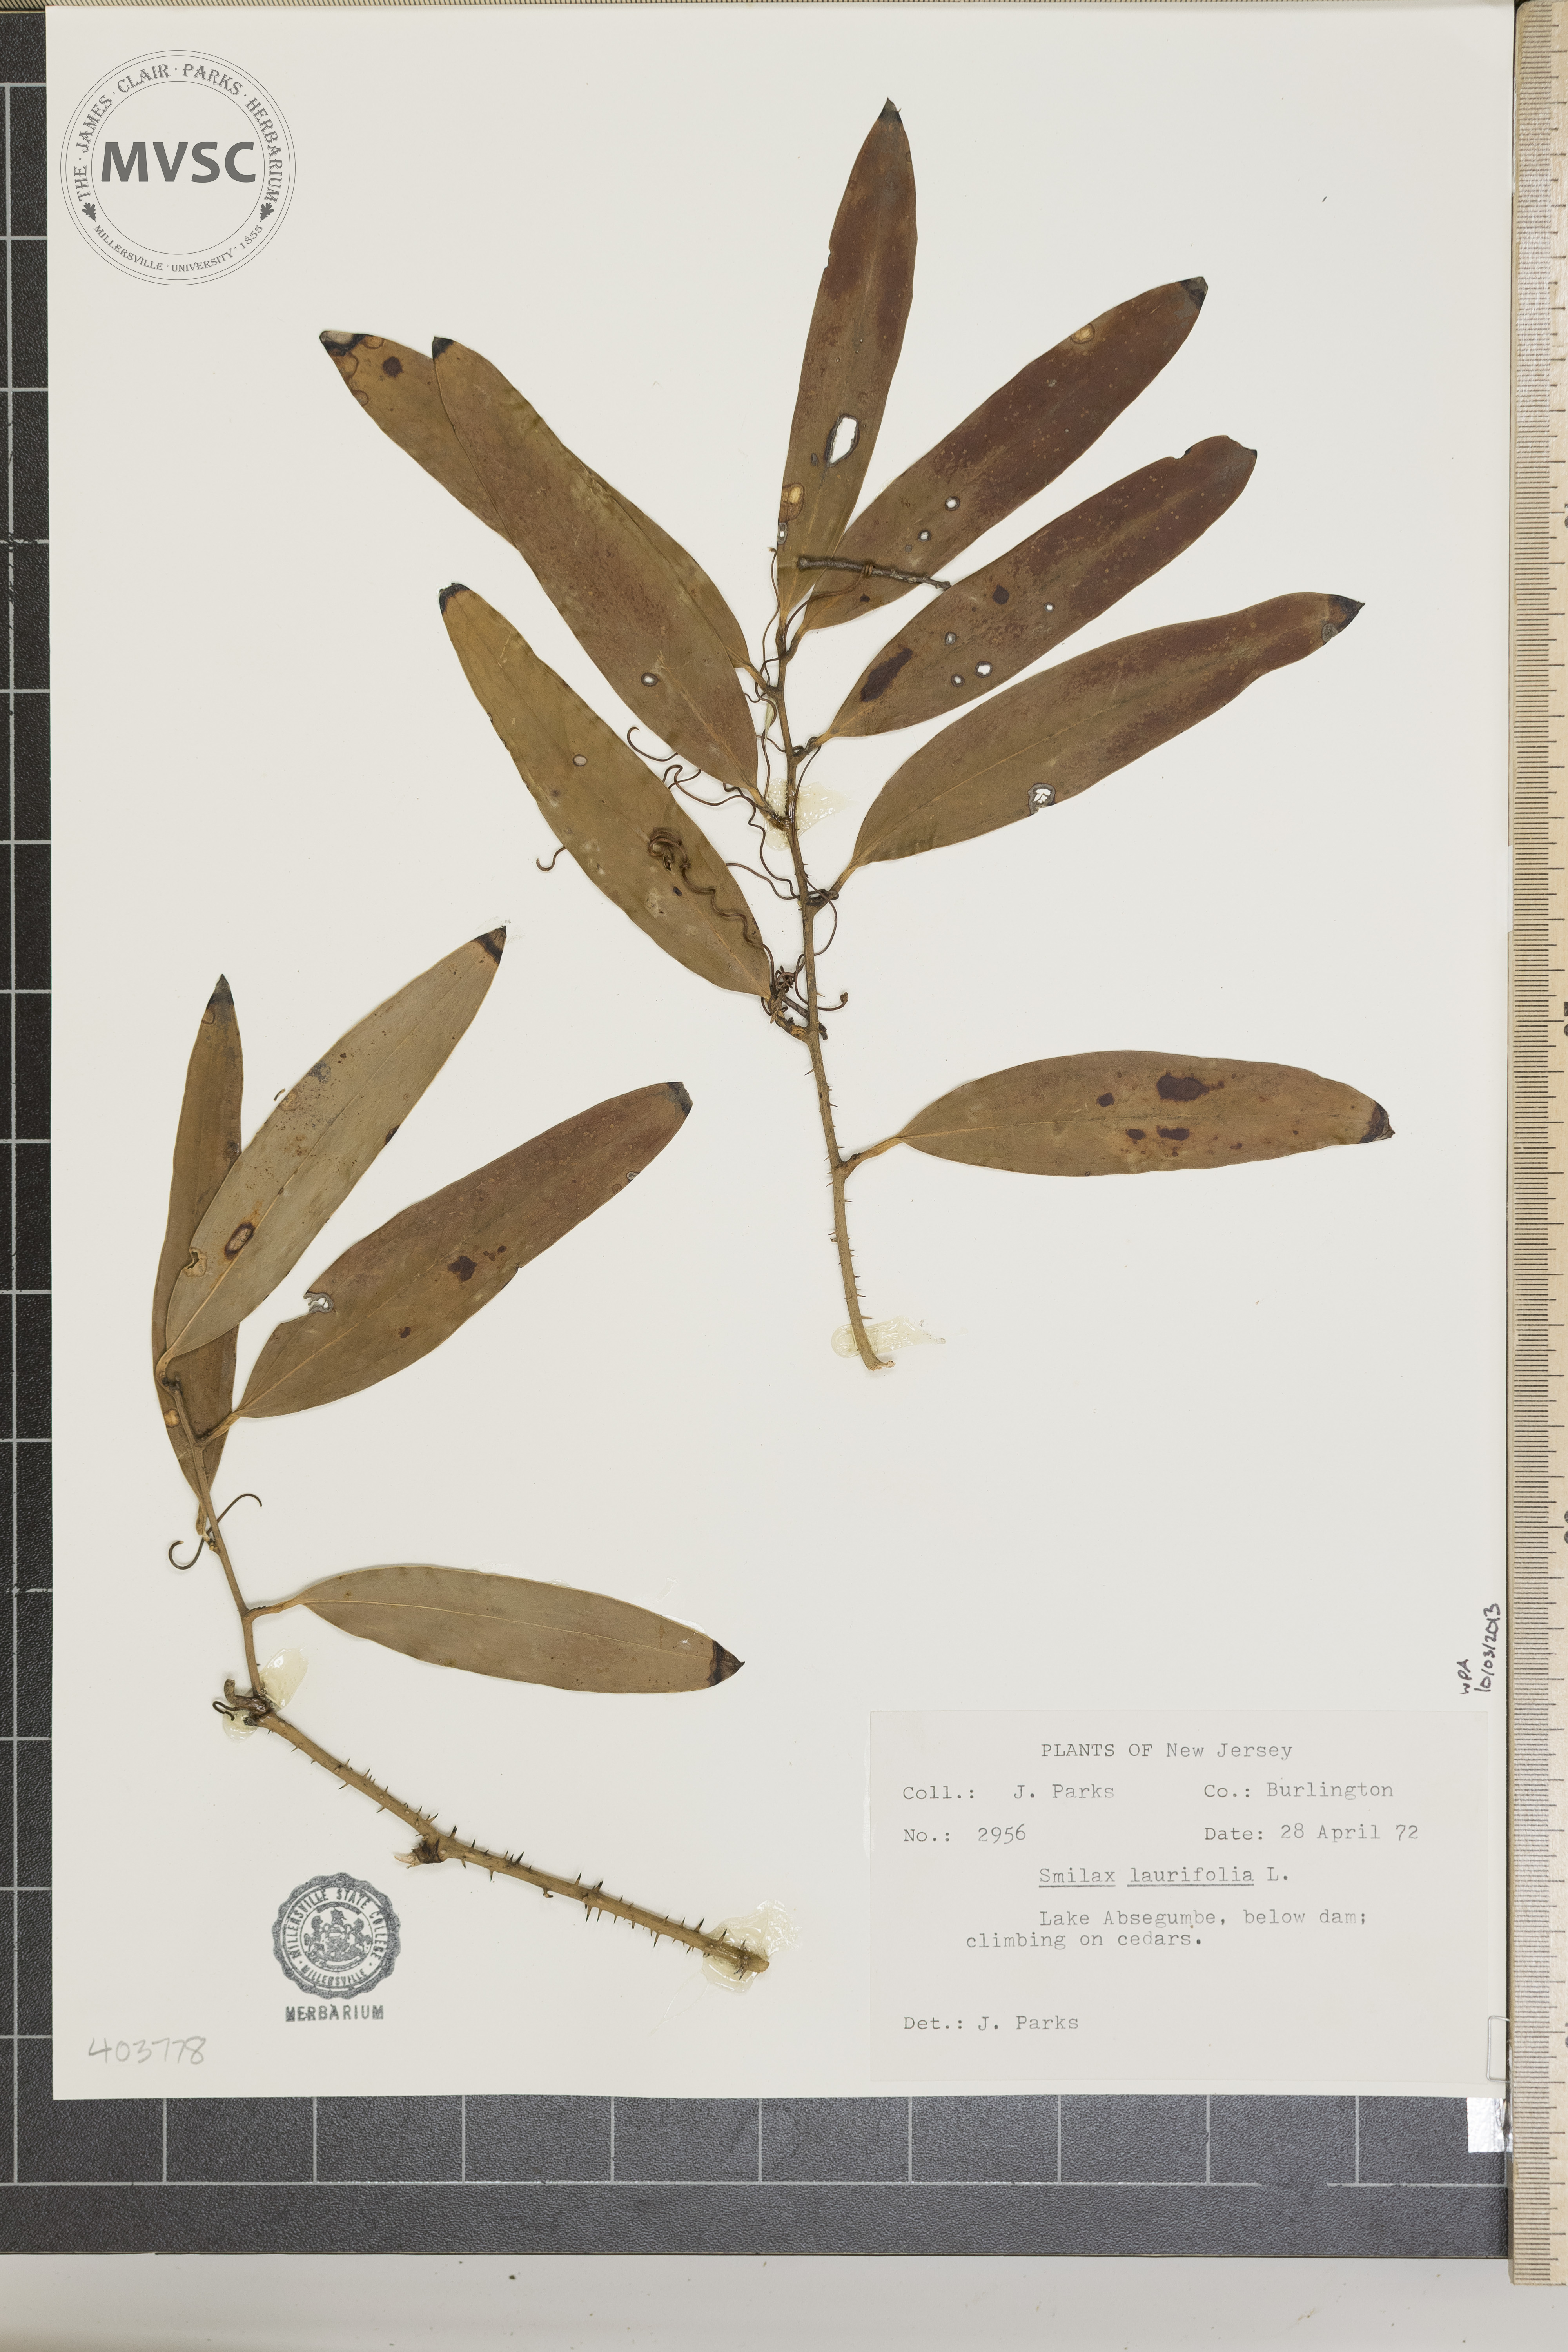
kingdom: Plantae
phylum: Tracheophyta
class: Liliopsida
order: Liliales
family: Smilacaceae
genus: Smilax
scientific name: Smilax laurifolia
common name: Bamboovine
